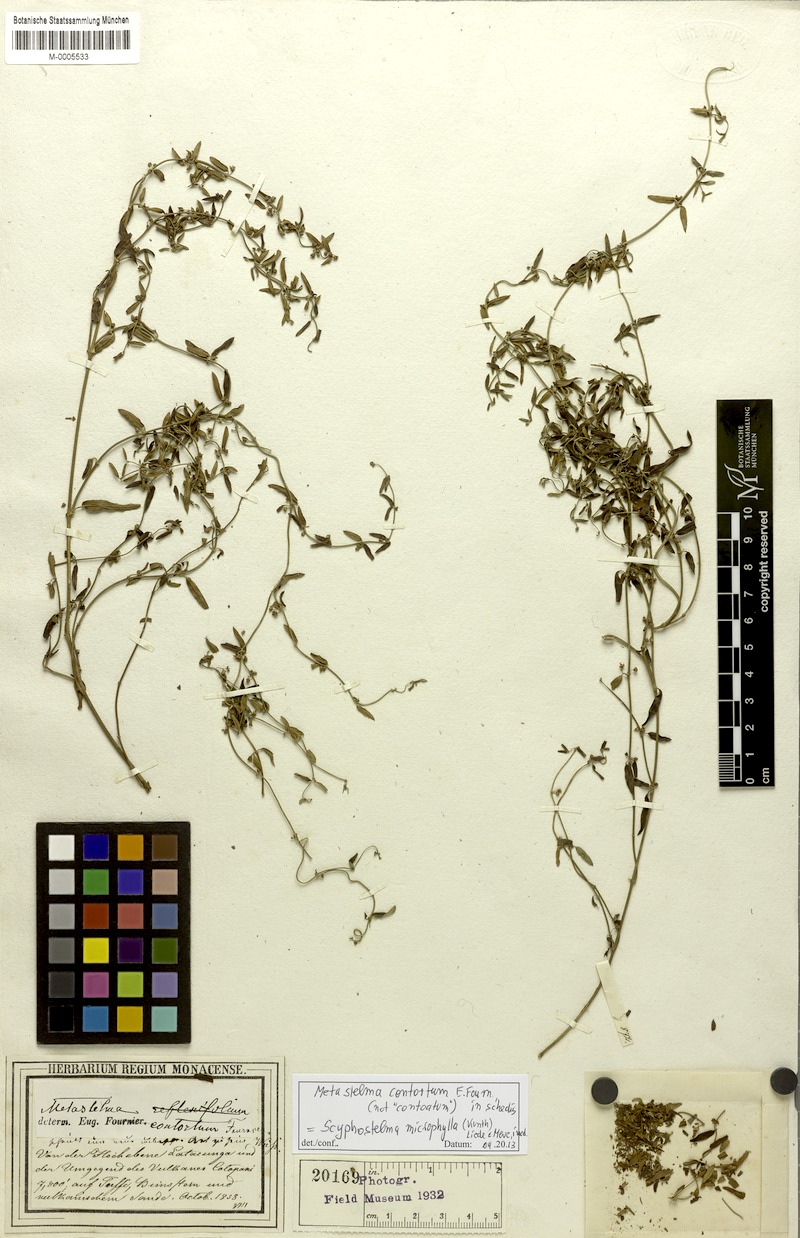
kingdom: Plantae
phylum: Tracheophyta
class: Magnoliopsida
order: Gentianales
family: Apocynaceae
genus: Scyphostelma
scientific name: Scyphostelma microphylla
